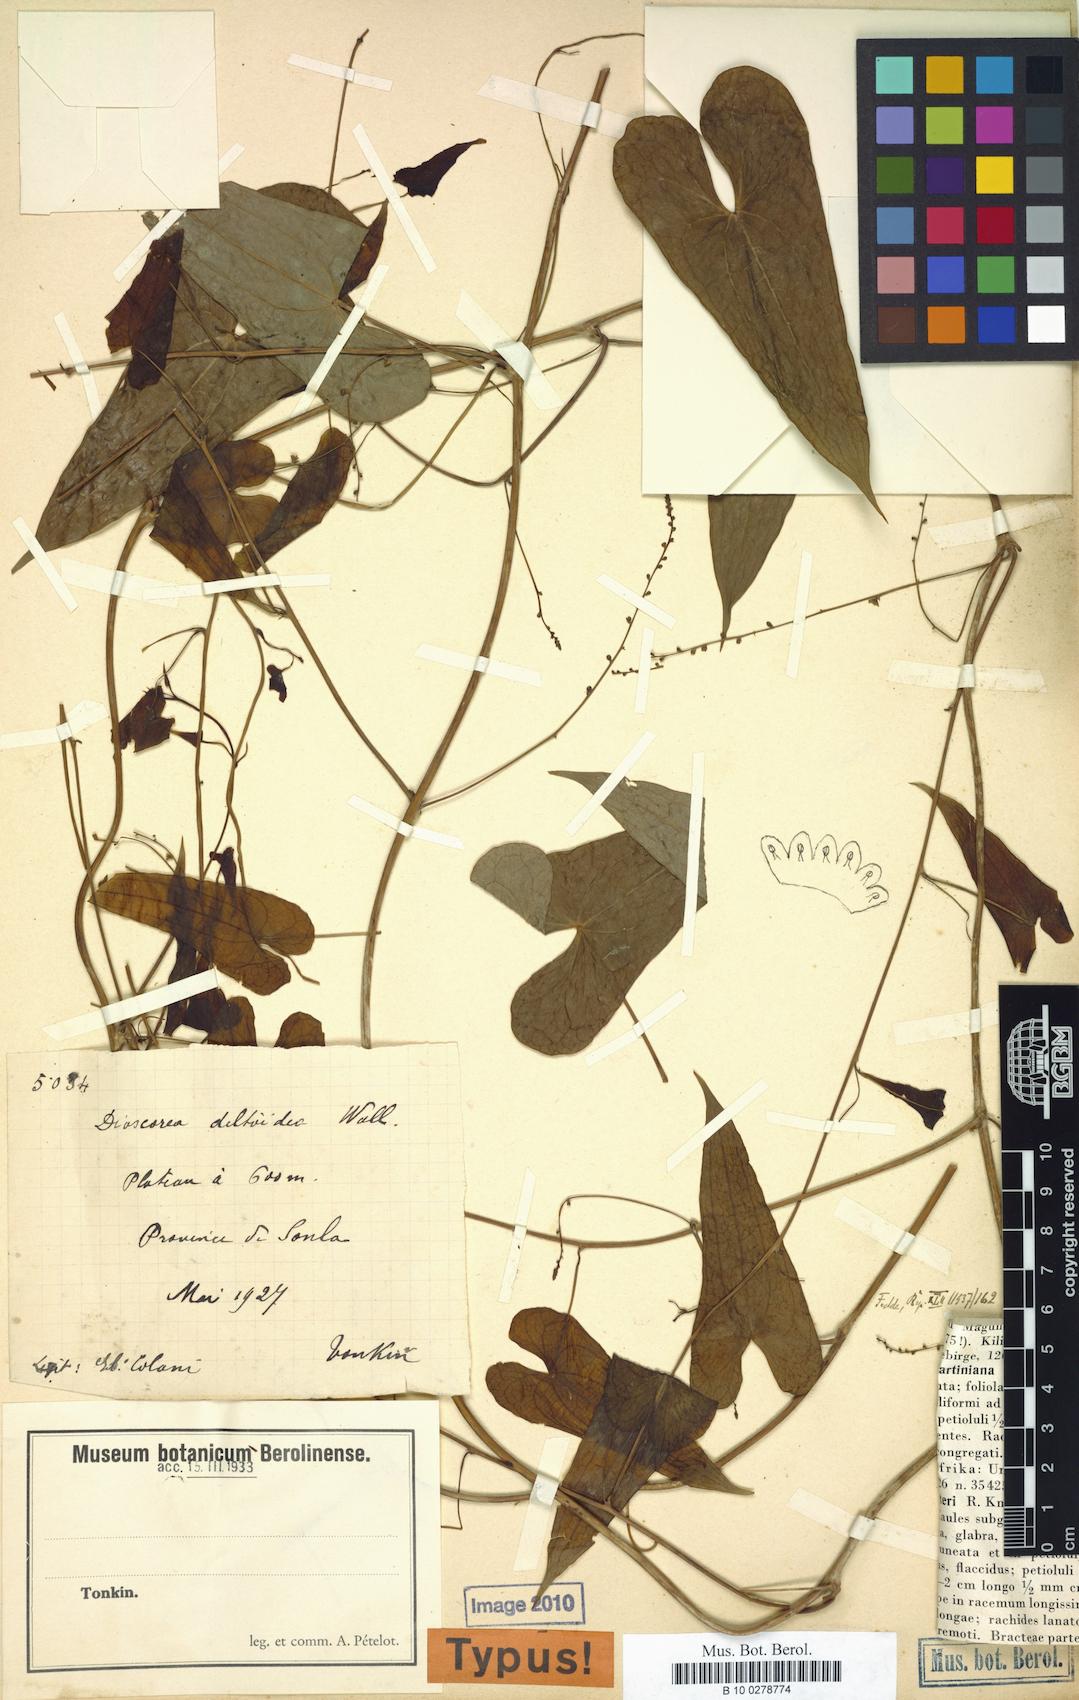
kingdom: Plantae
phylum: Tracheophyta
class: Liliopsida
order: Dioscoreales
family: Dioscoreaceae
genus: Dioscorea
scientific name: Dioscorea sonlaensis
